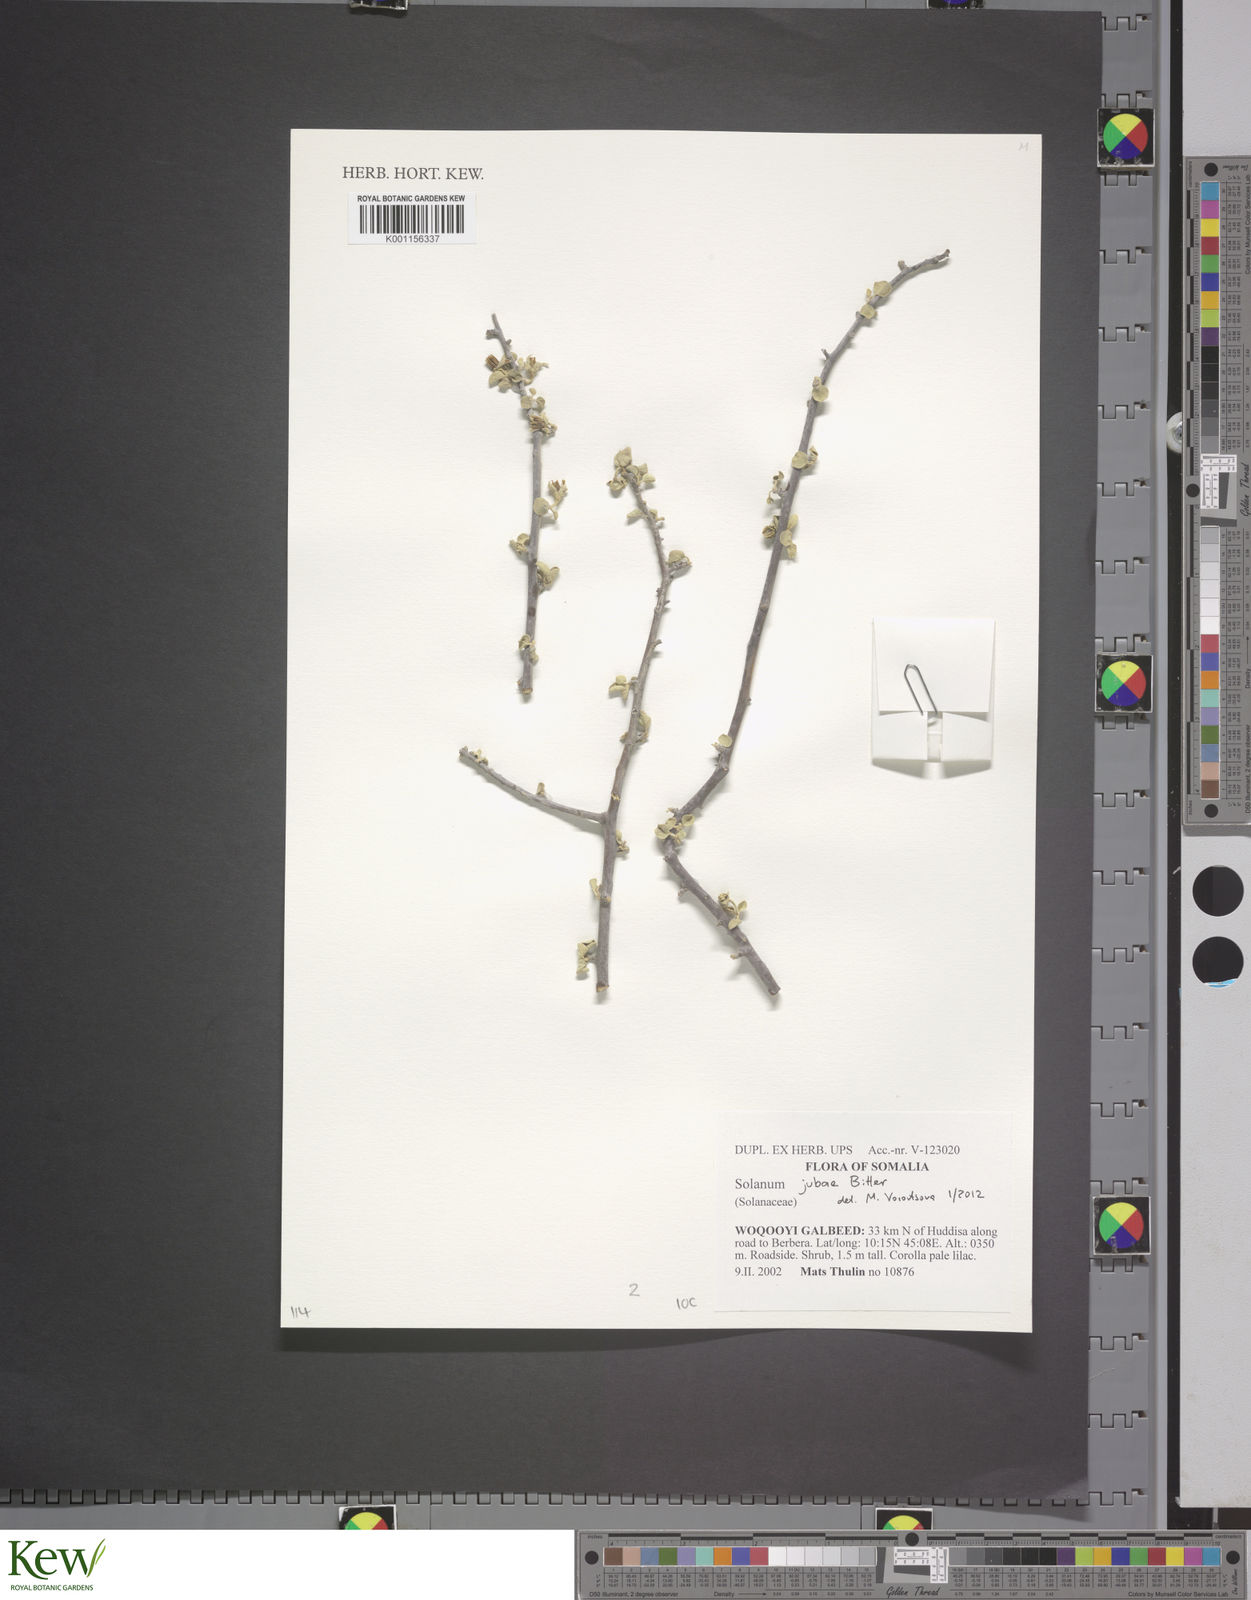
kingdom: Plantae
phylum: Tracheophyta
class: Magnoliopsida
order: Solanales
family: Solanaceae
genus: Solanum
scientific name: Solanum jubae
